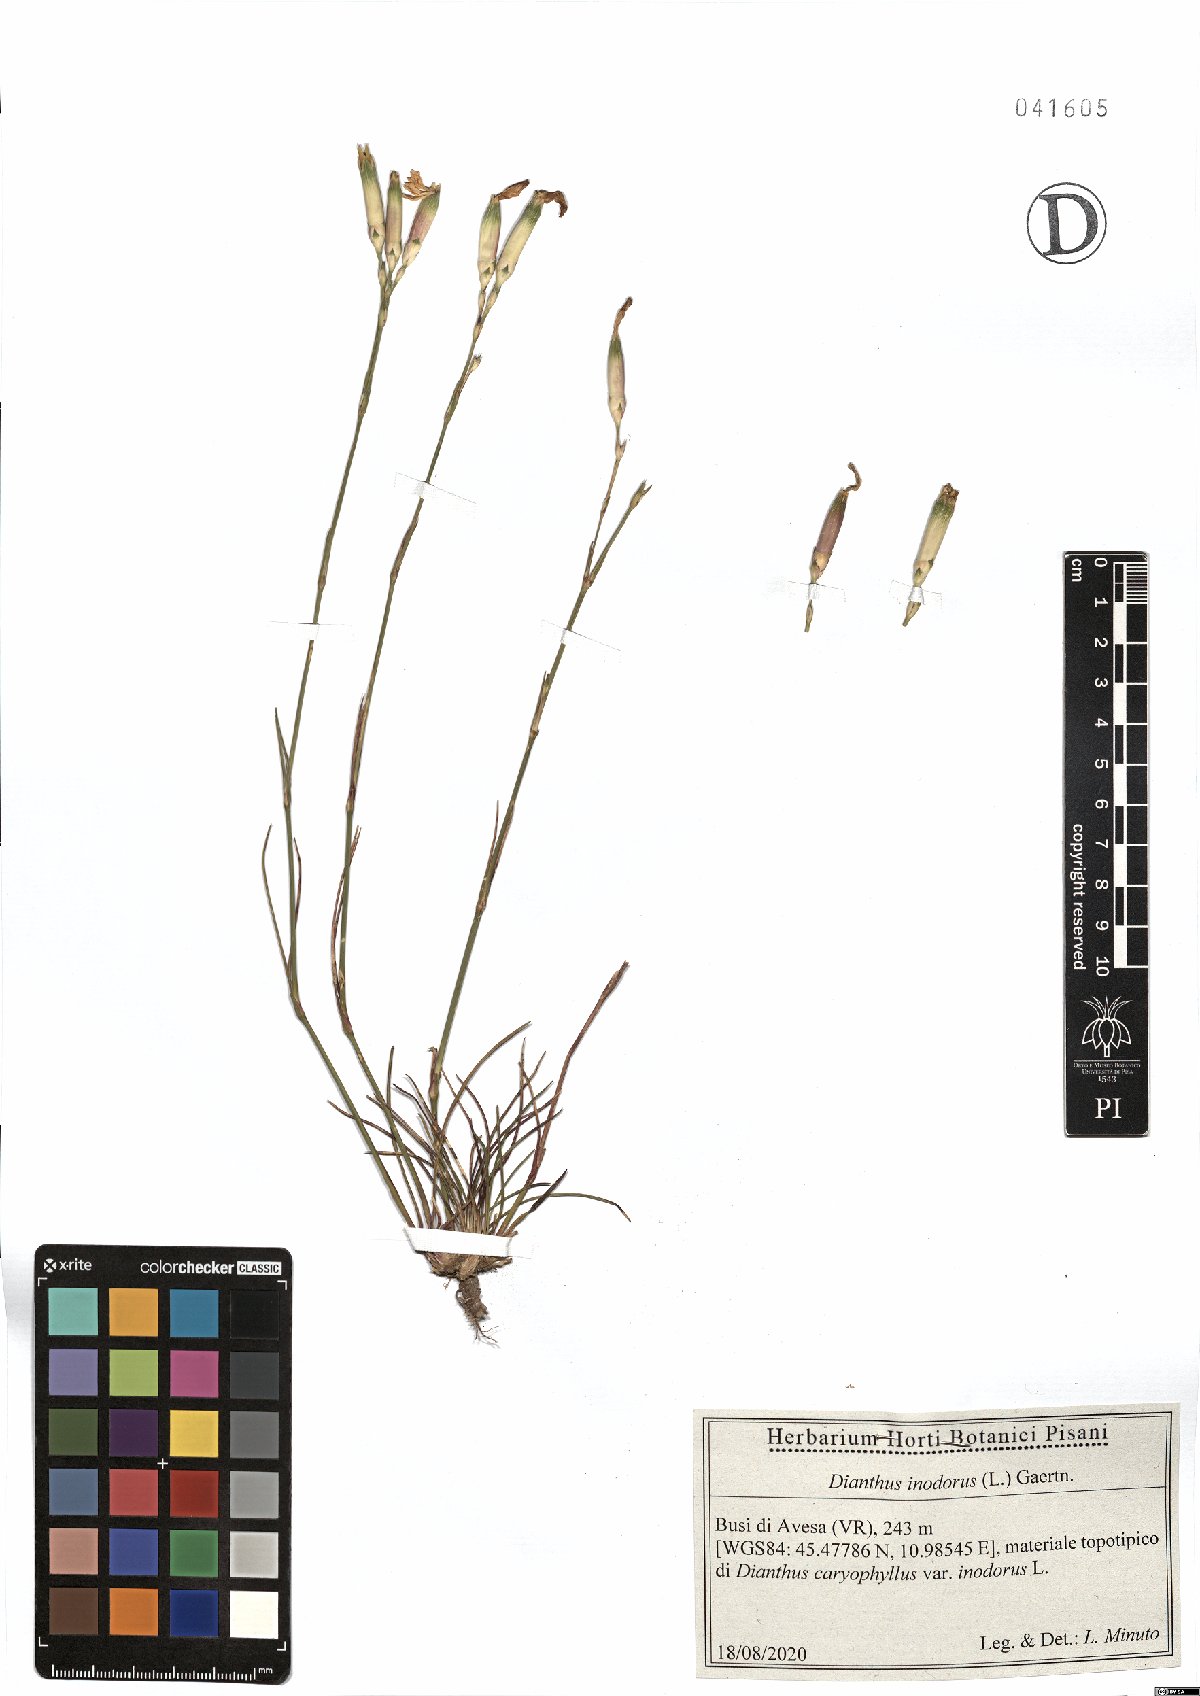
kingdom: Plantae
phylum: Tracheophyta
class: Magnoliopsida
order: Caryophyllales
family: Caryophyllaceae
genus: Dianthus
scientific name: Dianthus sylvestris
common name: Wood pink
